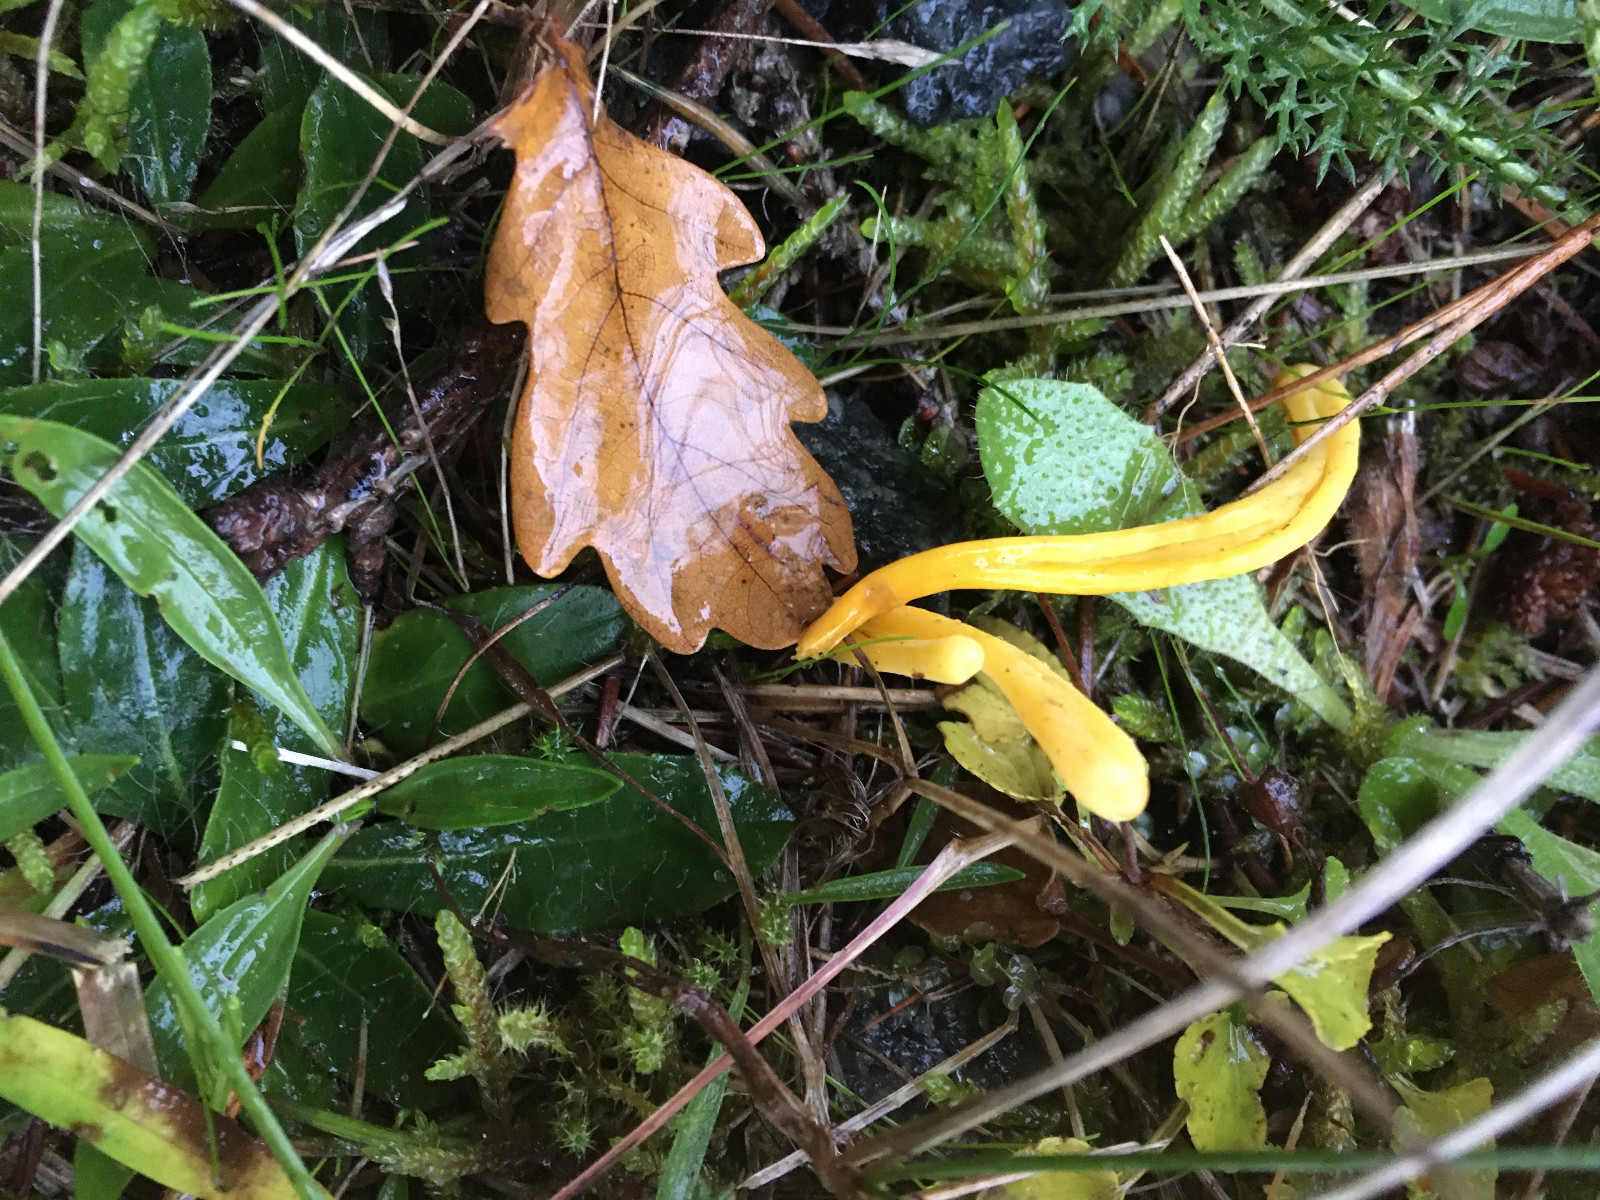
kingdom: Fungi
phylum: Basidiomycota
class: Agaricomycetes
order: Agaricales
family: Clavariaceae
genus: Clavulinopsis
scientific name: Clavulinopsis
